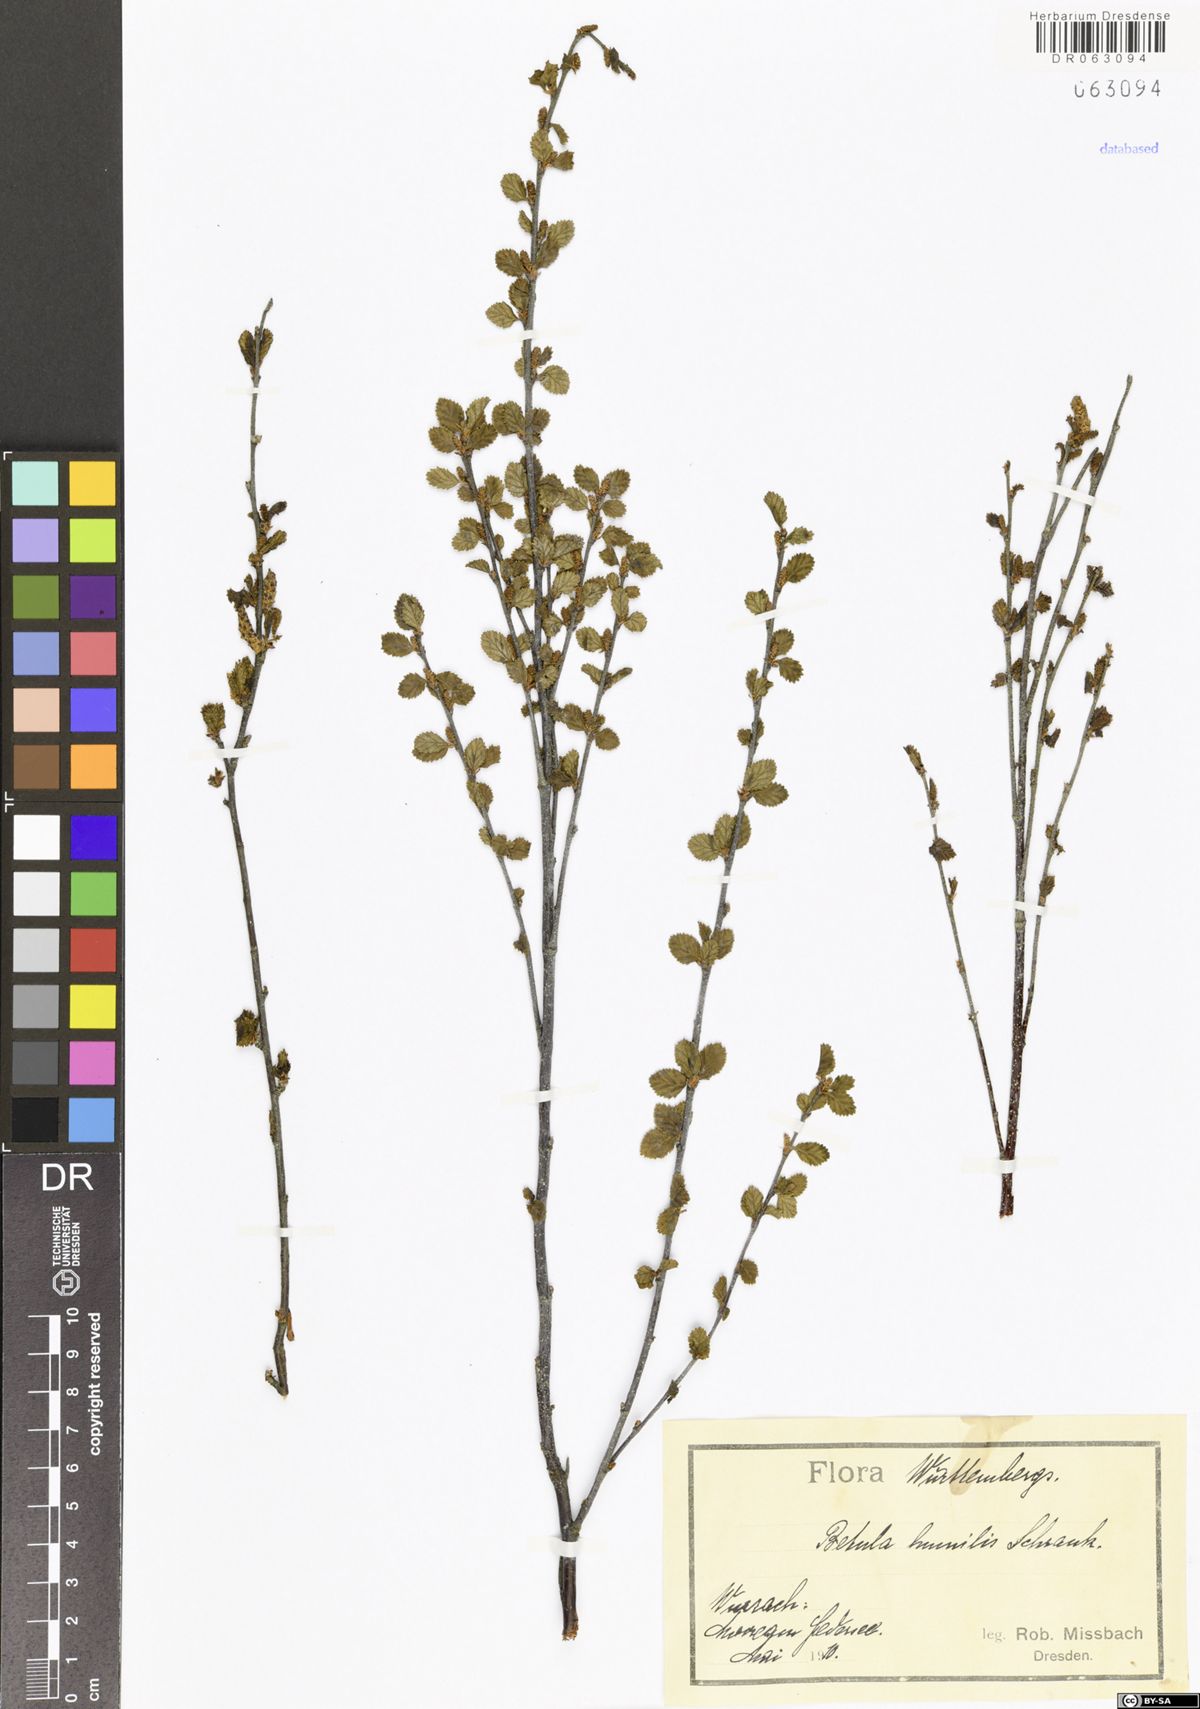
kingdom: Plantae
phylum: Tracheophyta
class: Magnoliopsida
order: Fagales
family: Betulaceae
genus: Betula
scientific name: Betula humilis
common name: Shrubby birch
